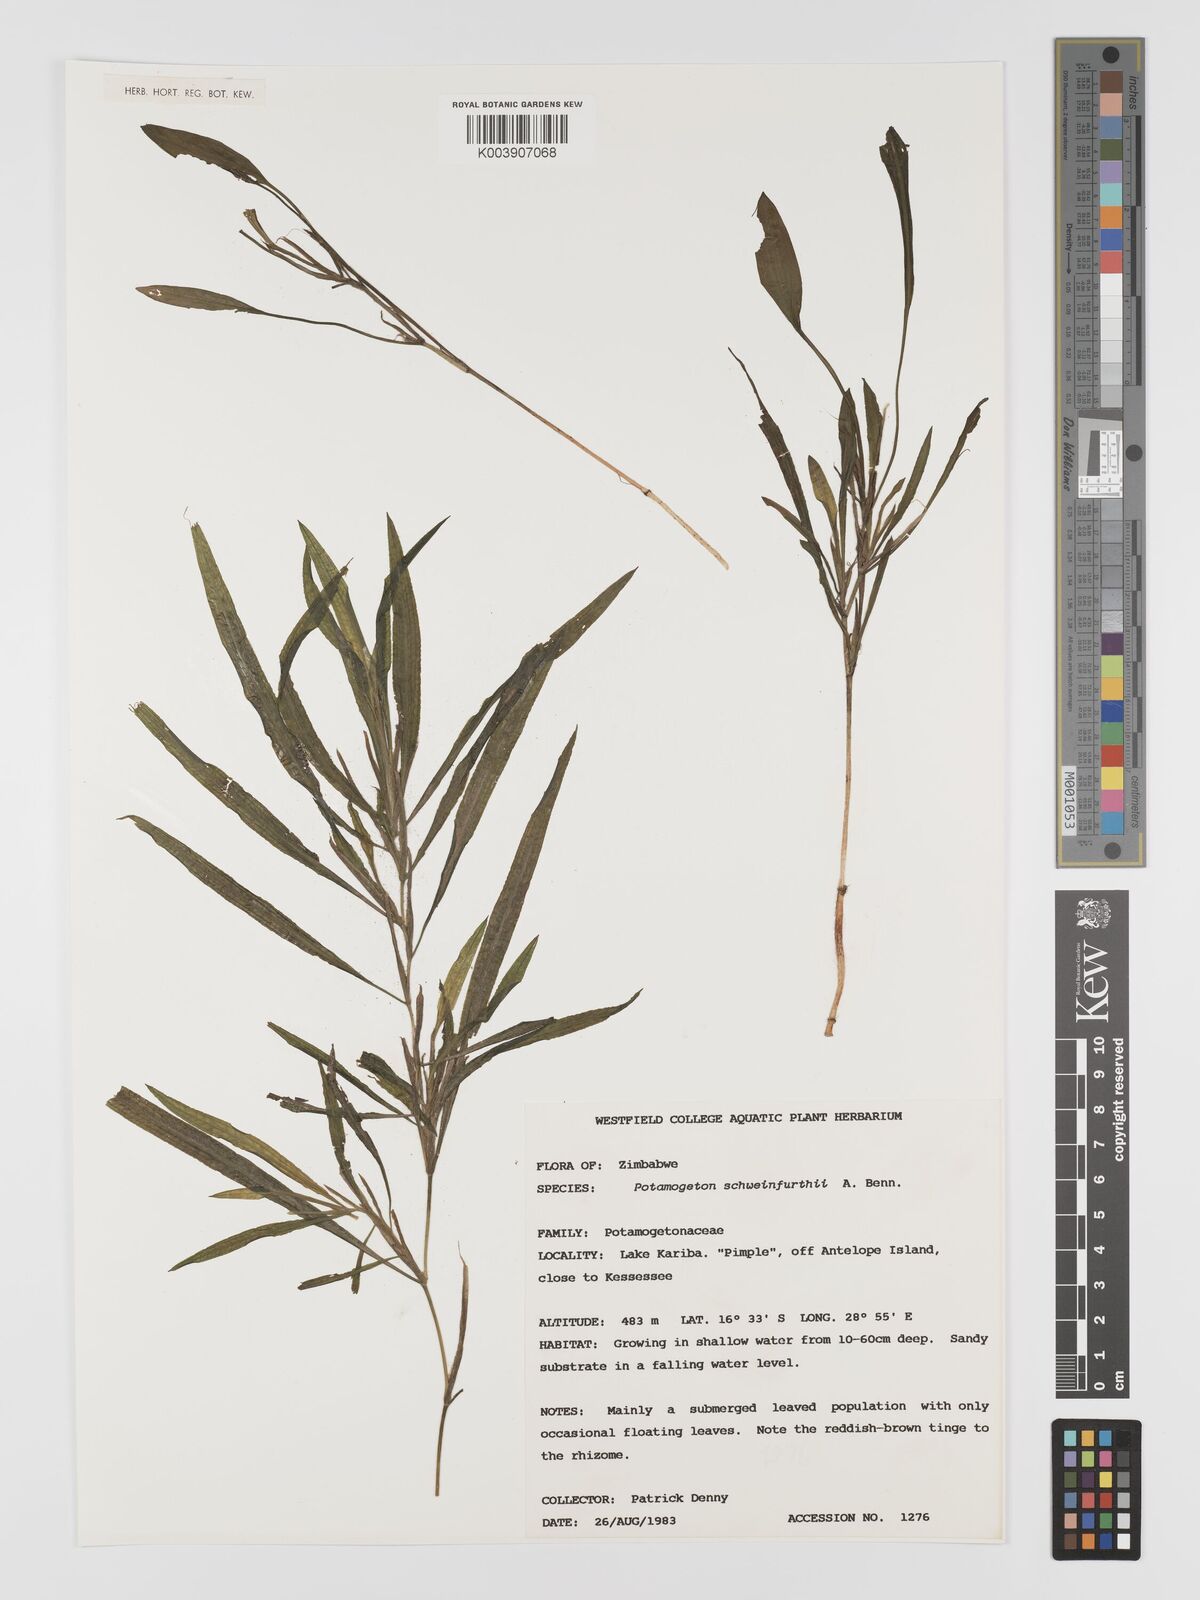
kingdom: Plantae
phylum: Tracheophyta
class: Liliopsida
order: Alismatales
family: Potamogetonaceae
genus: Potamogeton
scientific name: Potamogeton schweinfurthii
